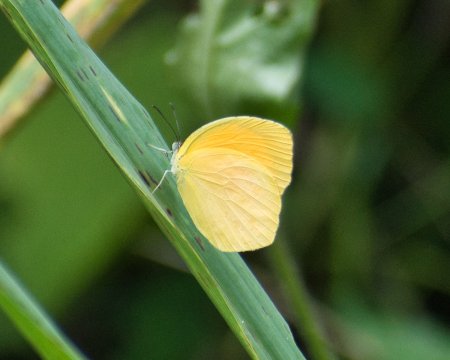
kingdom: Animalia
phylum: Arthropoda
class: Insecta
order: Lepidoptera
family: Pieridae
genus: Pyrisitia
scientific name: Pyrisitia proterpia
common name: Tailed Orange
